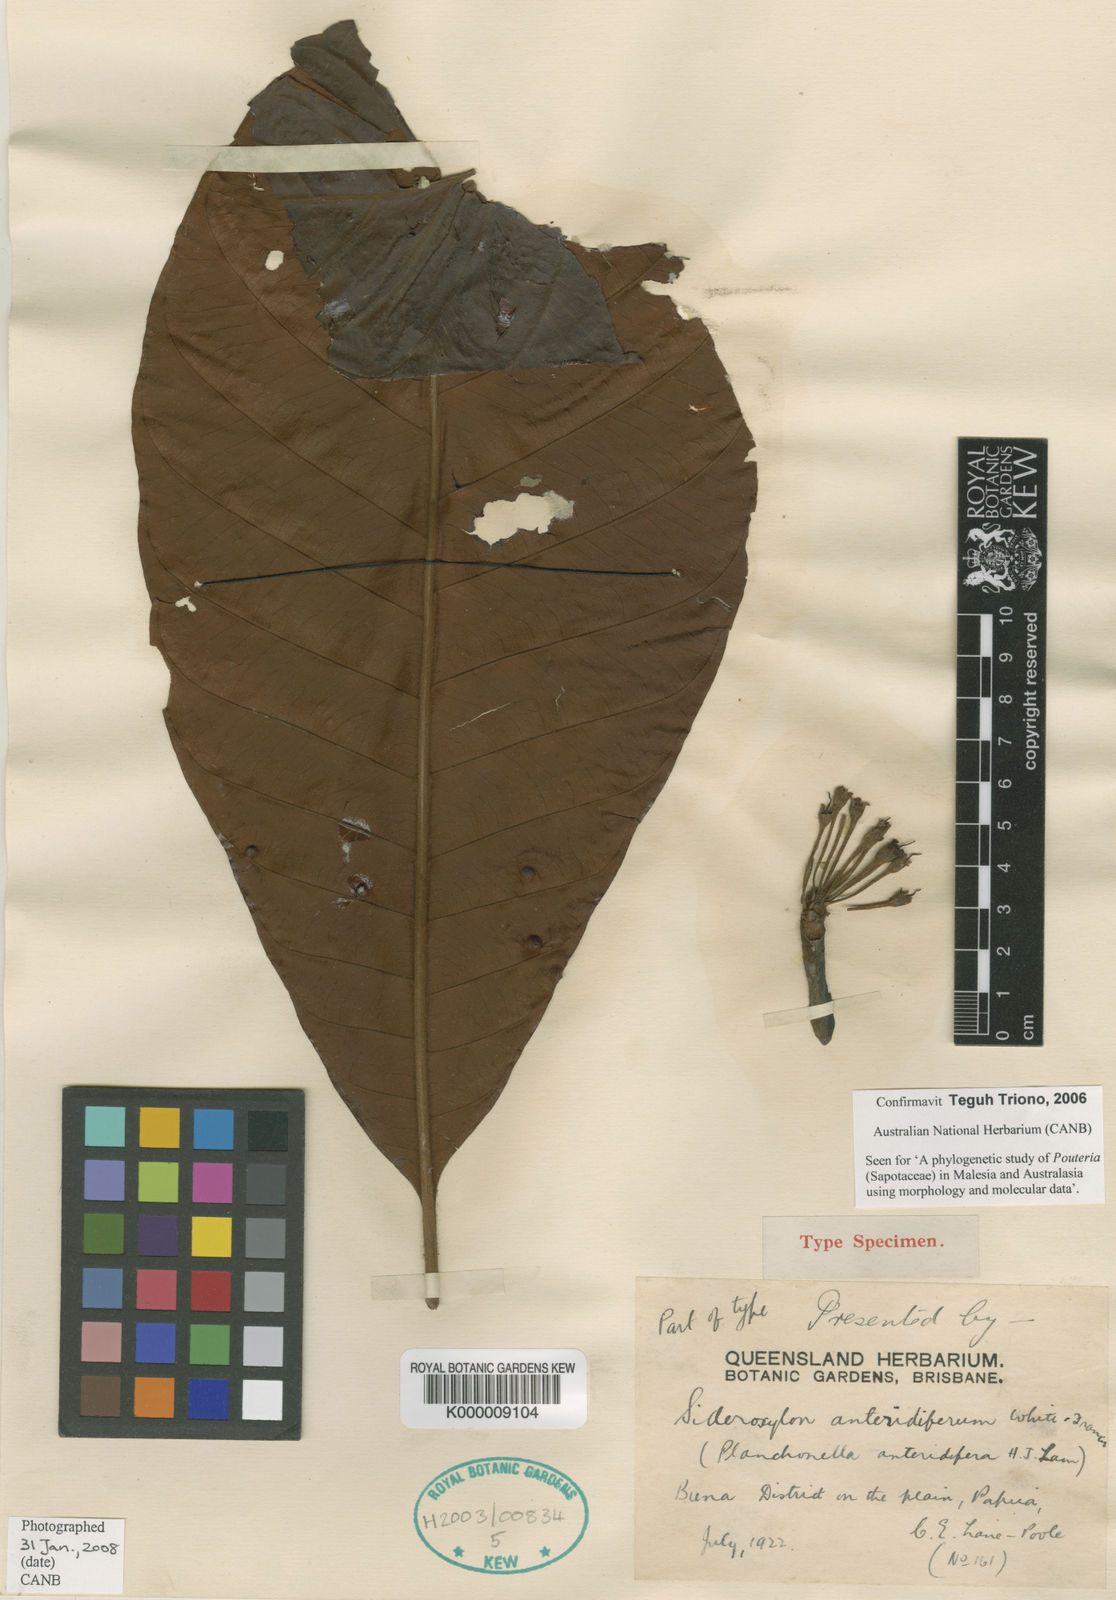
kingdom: Plantae
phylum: Tracheophyta
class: Magnoliopsida
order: Ericales
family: Sapotaceae
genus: Planchonella
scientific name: Planchonella anteridifera
